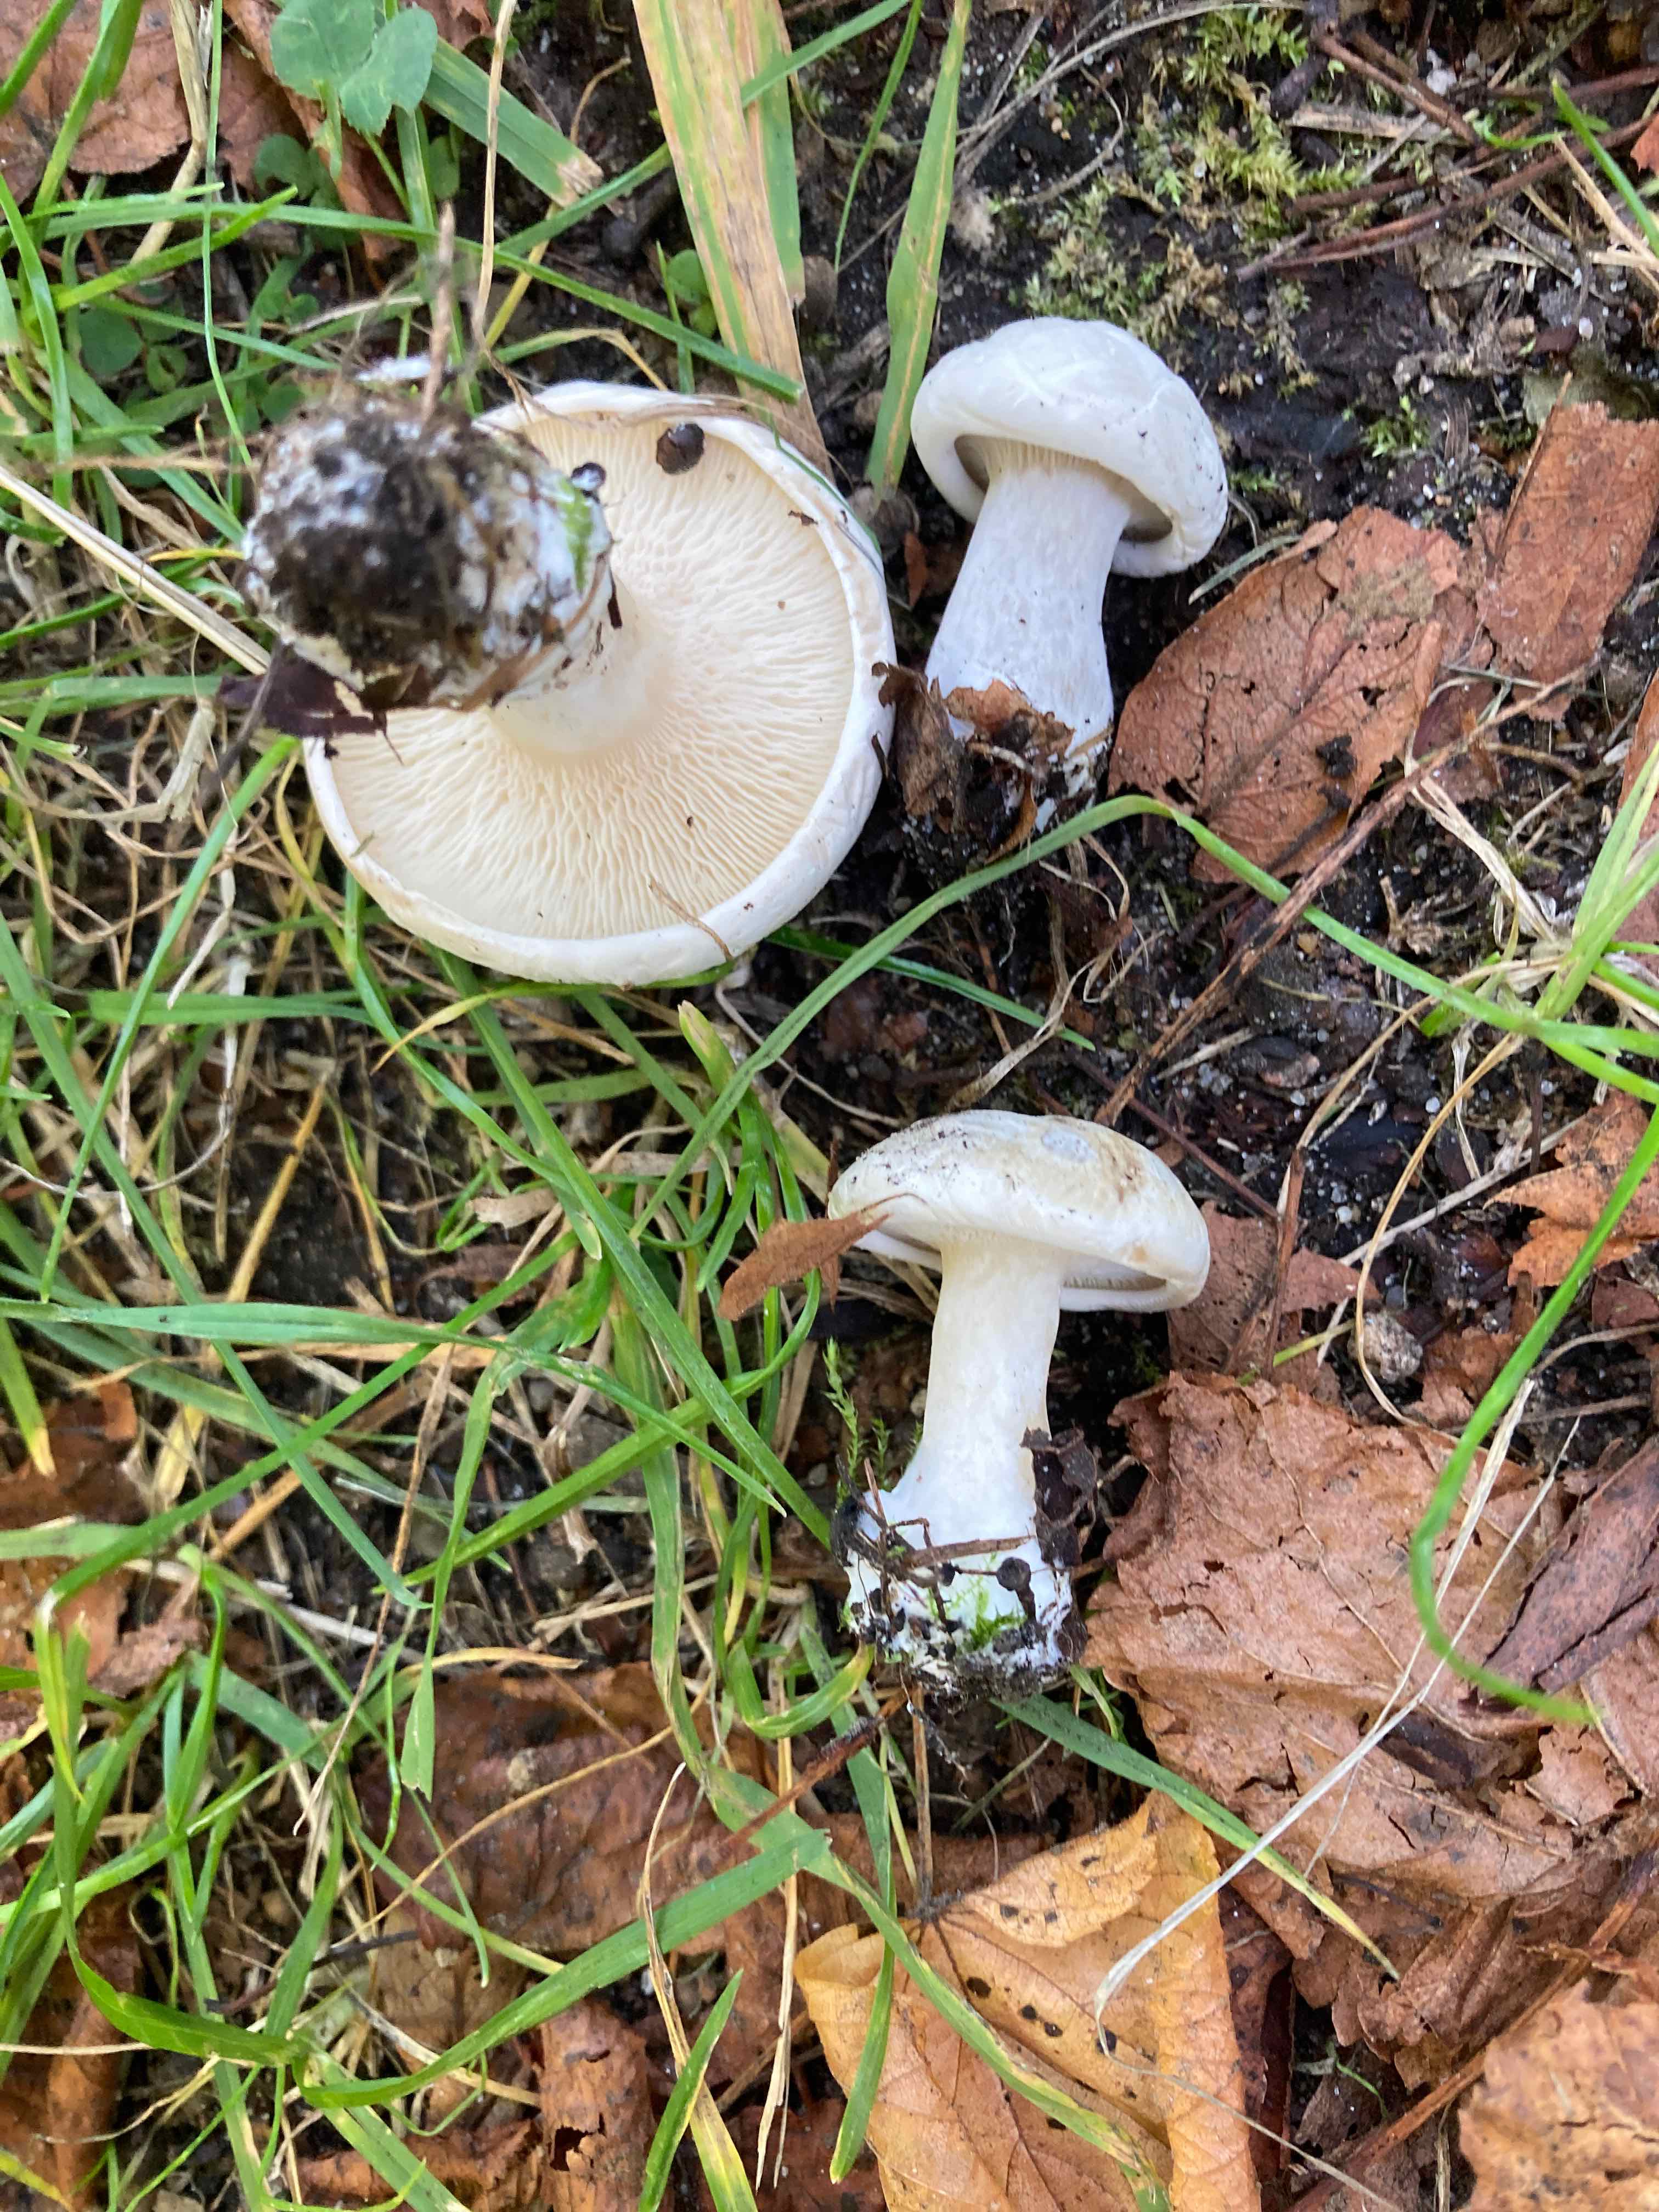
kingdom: Fungi
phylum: Basidiomycota
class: Agaricomycetes
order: Agaricales
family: Entolomataceae
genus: Clitopilus
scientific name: Clitopilus prunulus
